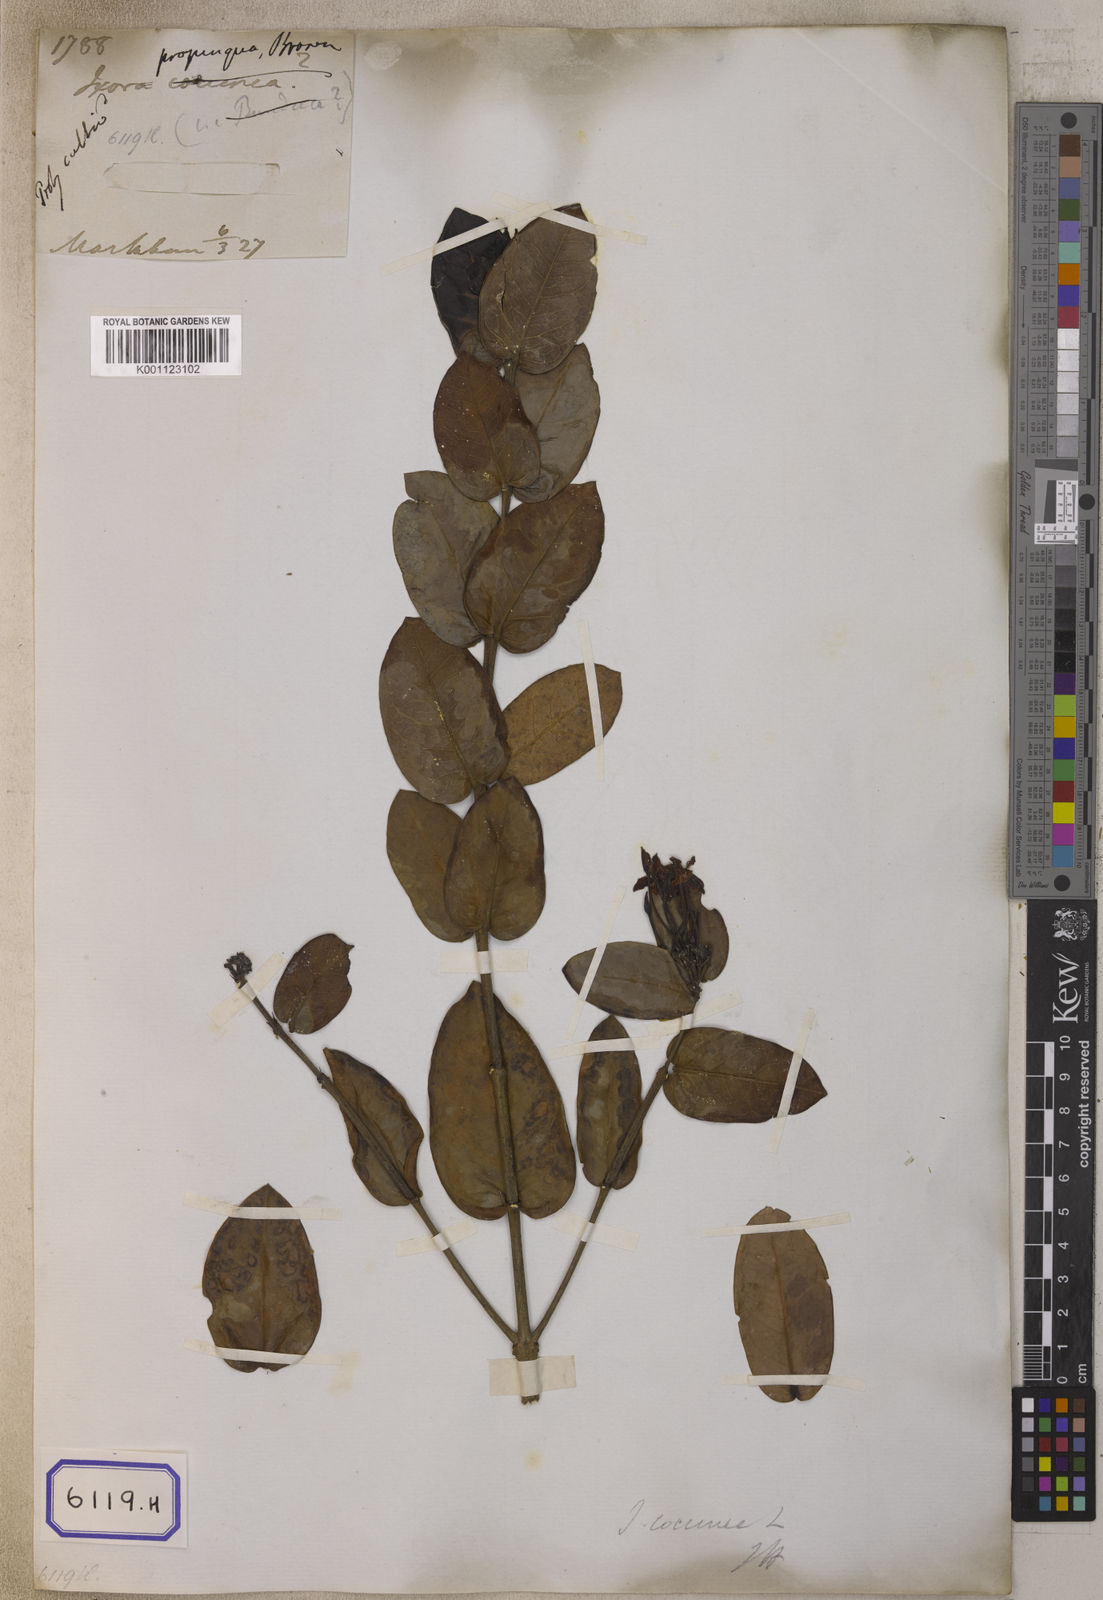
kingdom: Plantae
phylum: Tracheophyta
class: Magnoliopsida
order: Gentianales
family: Rubiaceae
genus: Ixora
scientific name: Ixora
